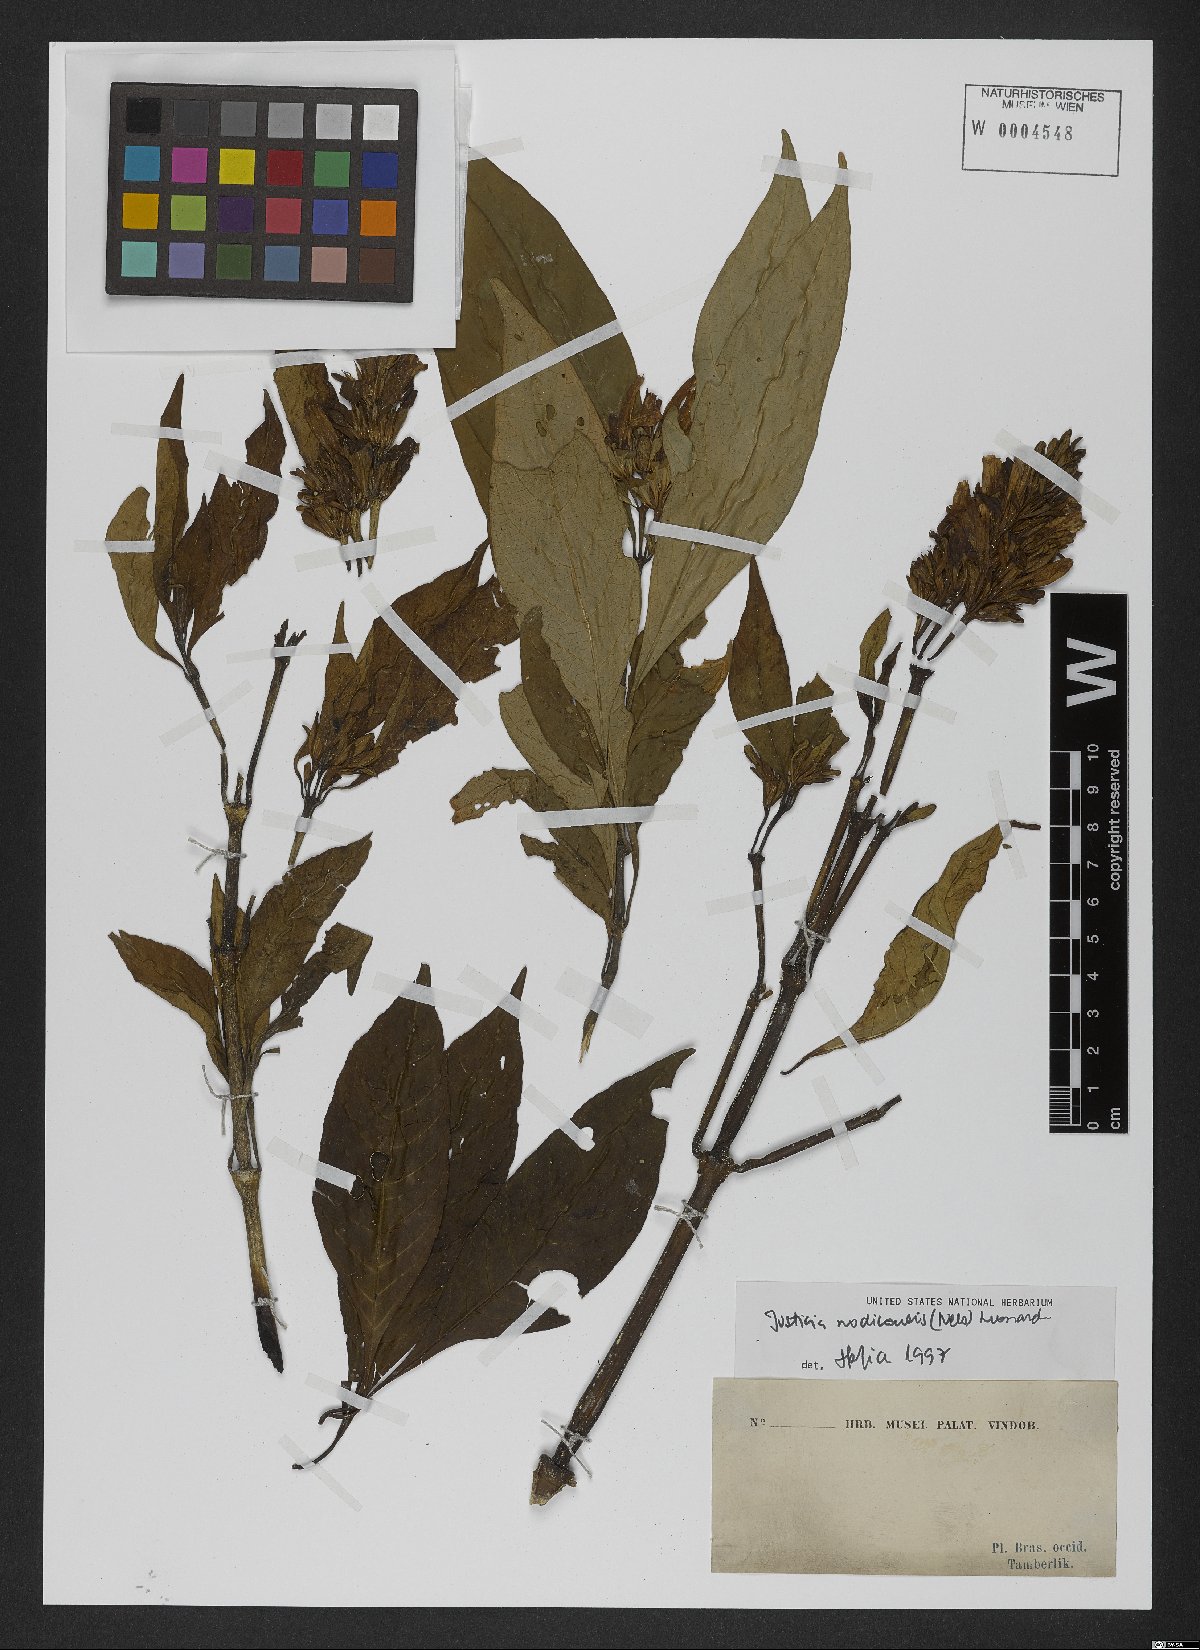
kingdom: Plantae
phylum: Tracheophyta
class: Magnoliopsida
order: Lamiales
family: Acanthaceae
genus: Justicia
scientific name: Justicia nodicaulis
